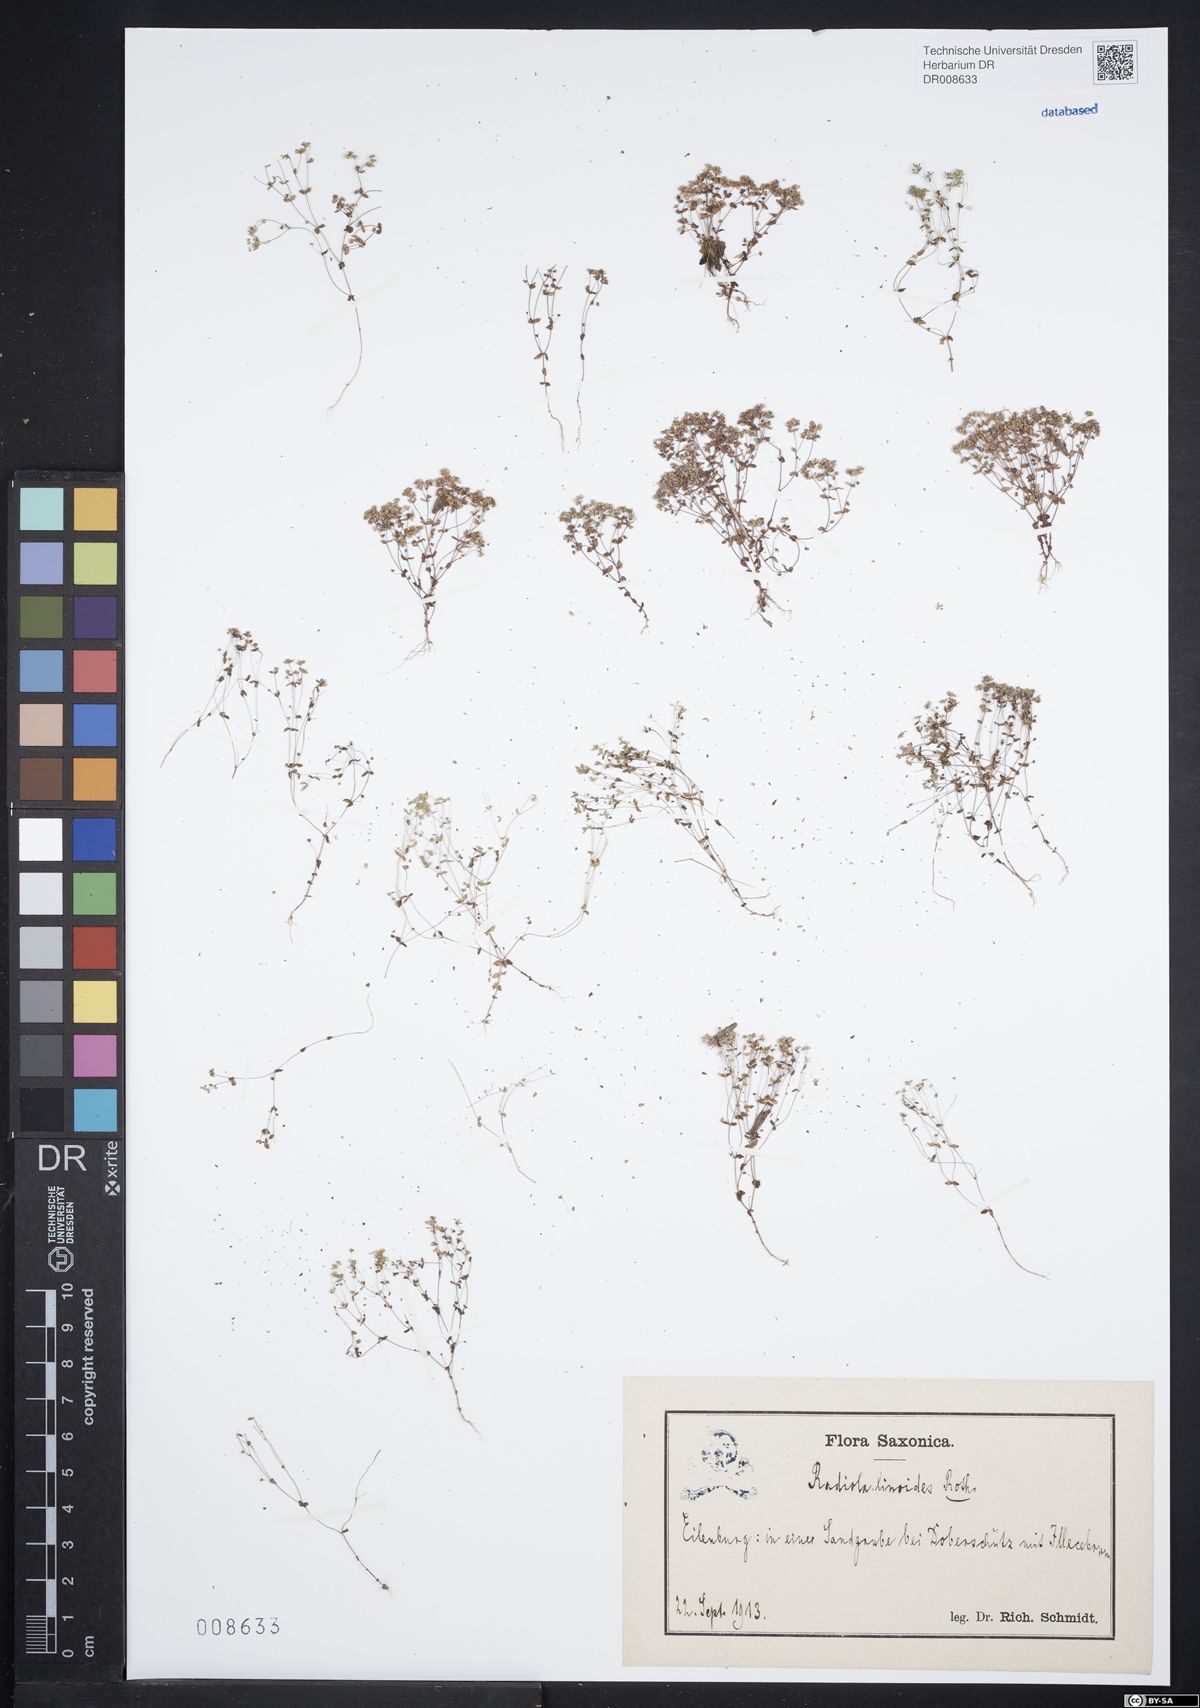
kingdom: Plantae
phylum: Tracheophyta
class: Magnoliopsida
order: Malpighiales
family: Linaceae
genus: Radiola
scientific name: Radiola linoides
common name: Allseed
